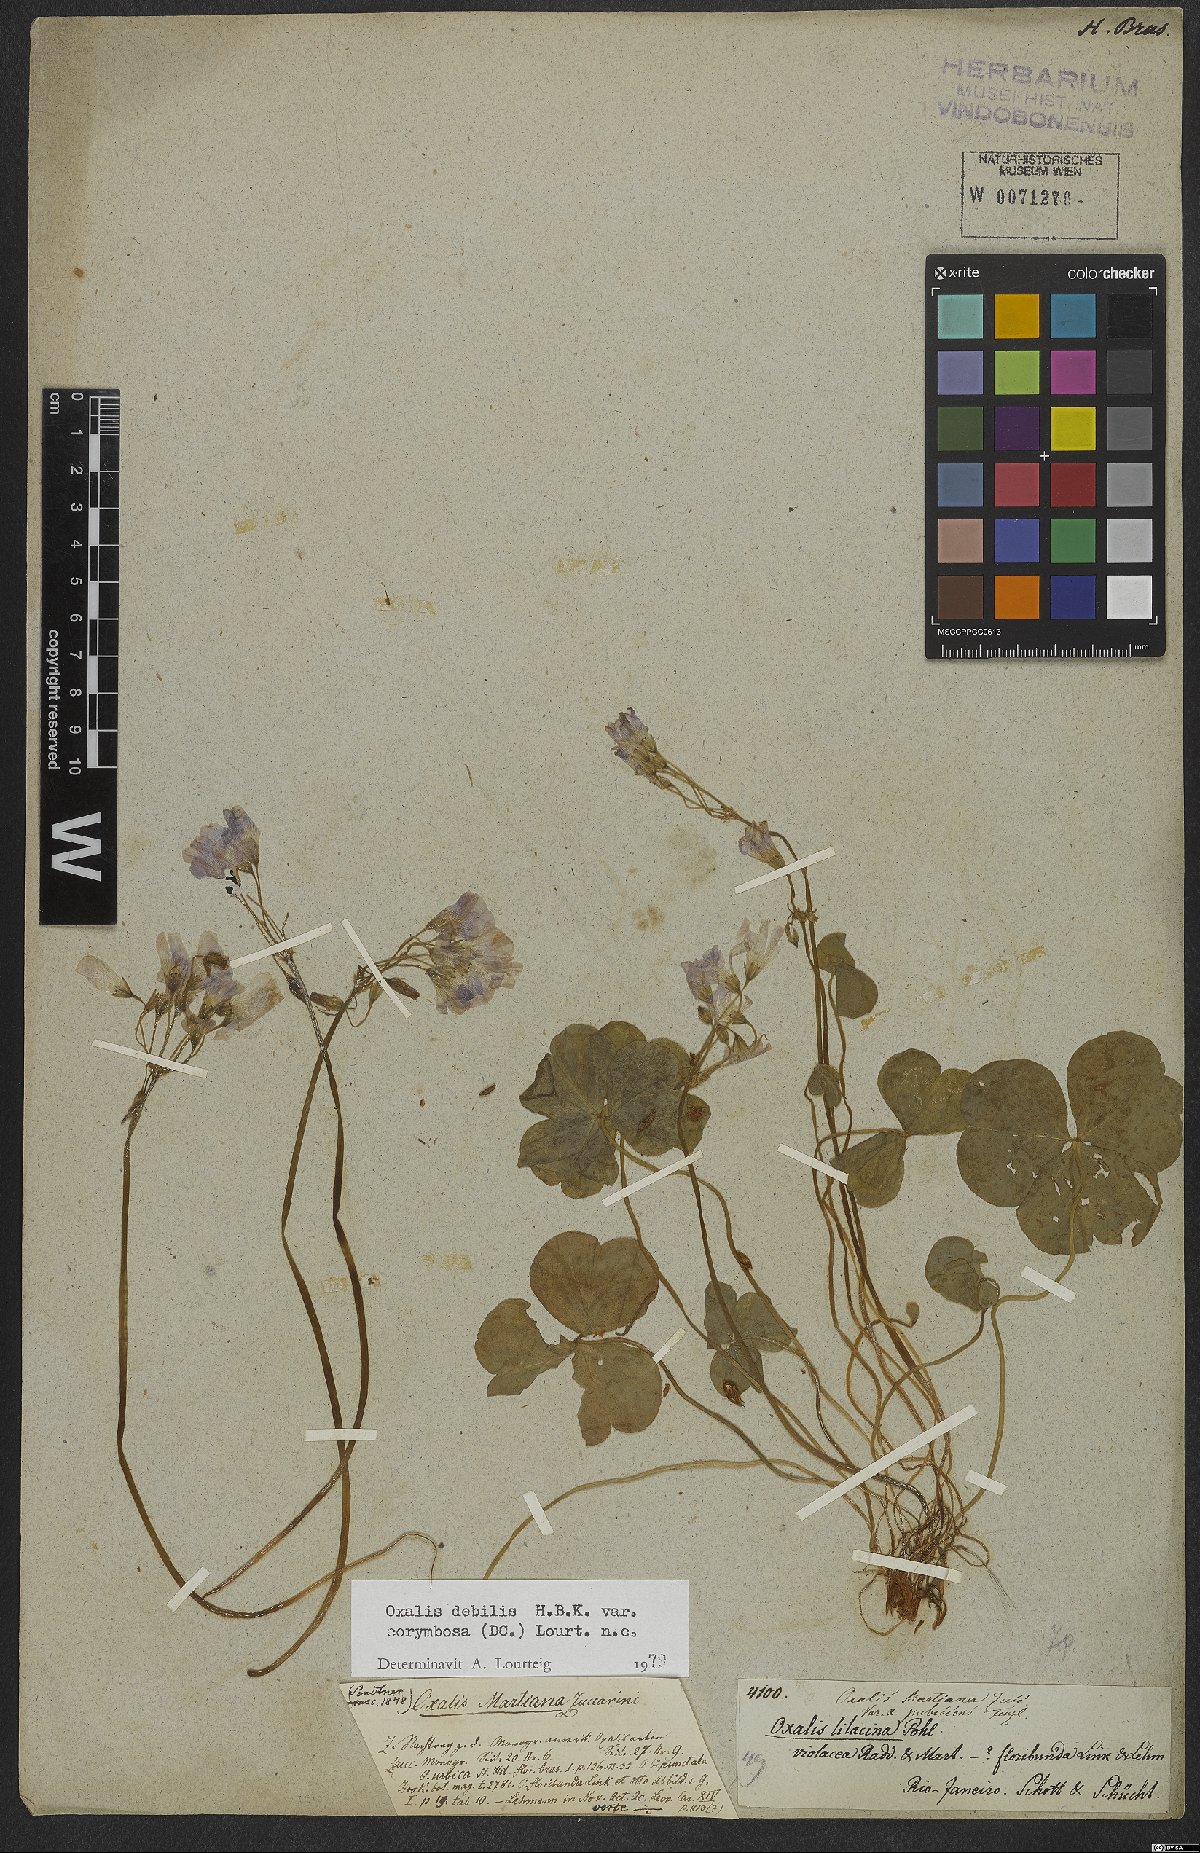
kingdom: Plantae
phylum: Tracheophyta
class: Magnoliopsida
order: Oxalidales
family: Oxalidaceae
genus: Oxalis
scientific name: Oxalis debilis
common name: Large-flowered pink-sorrel
